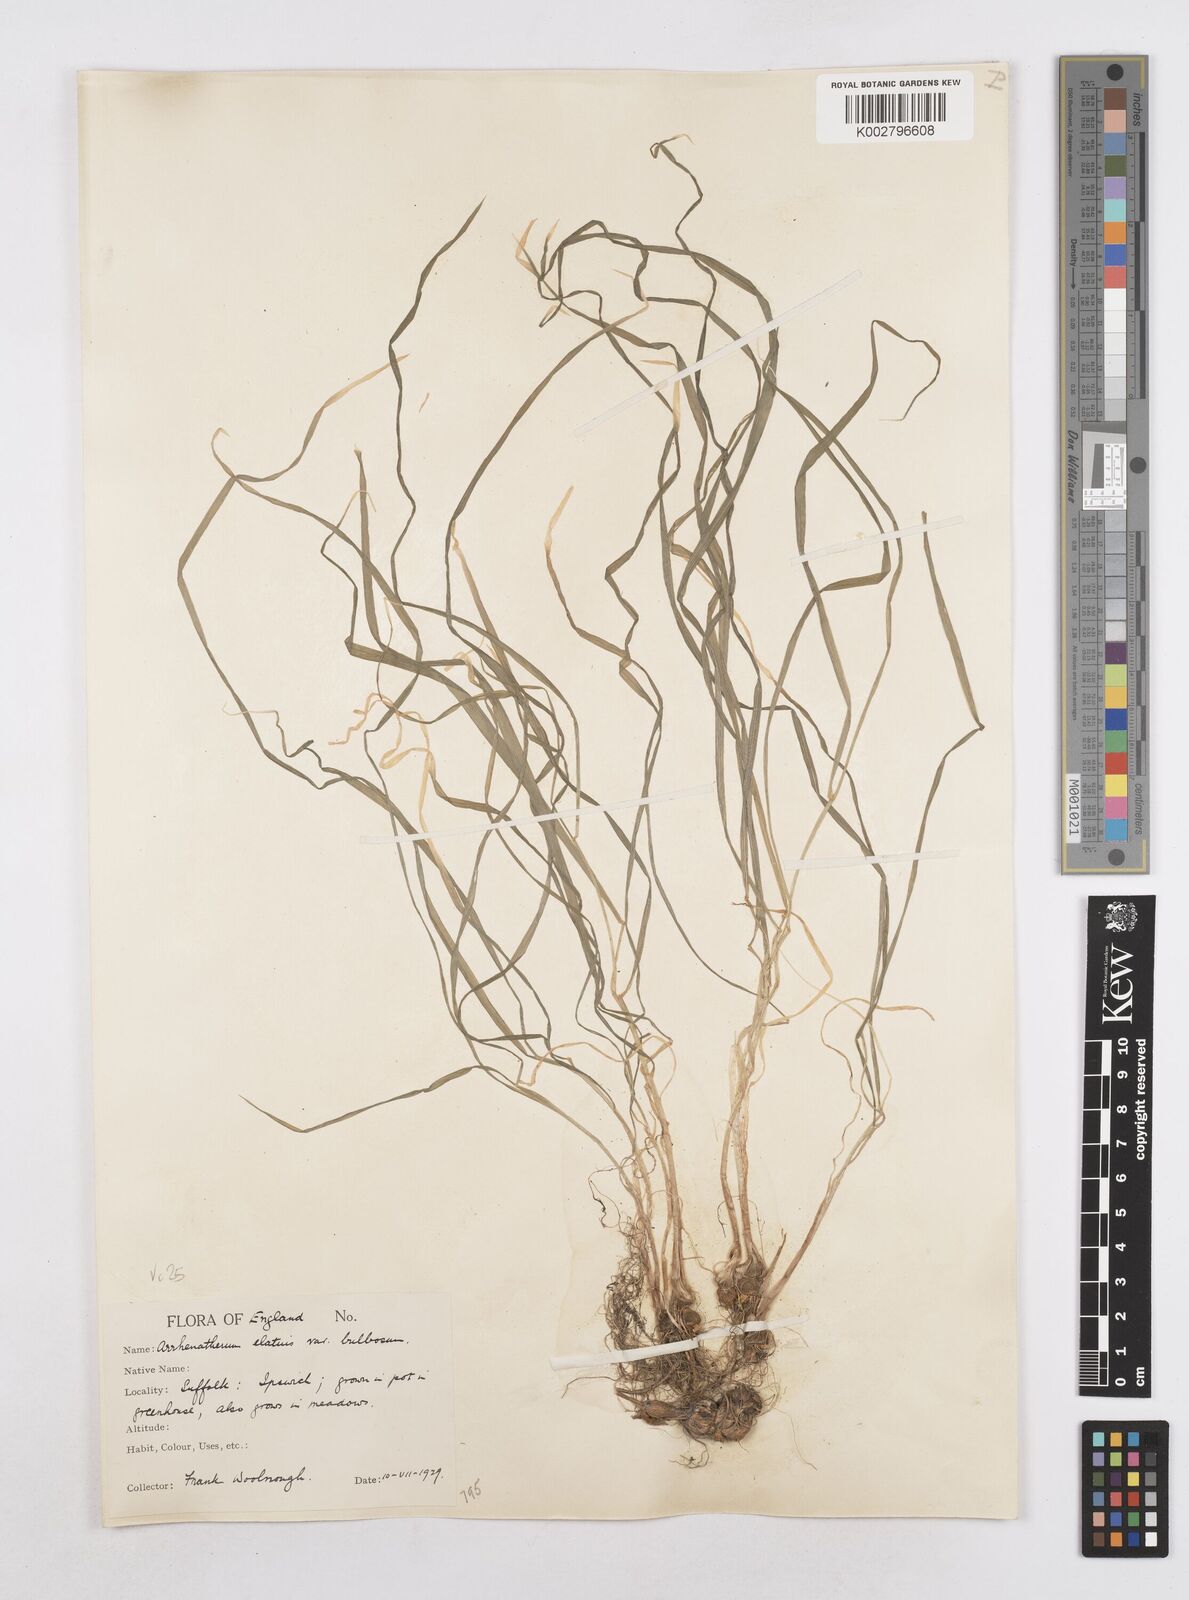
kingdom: Plantae
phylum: Tracheophyta
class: Liliopsida
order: Poales
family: Poaceae
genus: Arrhenatherum
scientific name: Arrhenatherum elatius
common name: Tall oatgrass
